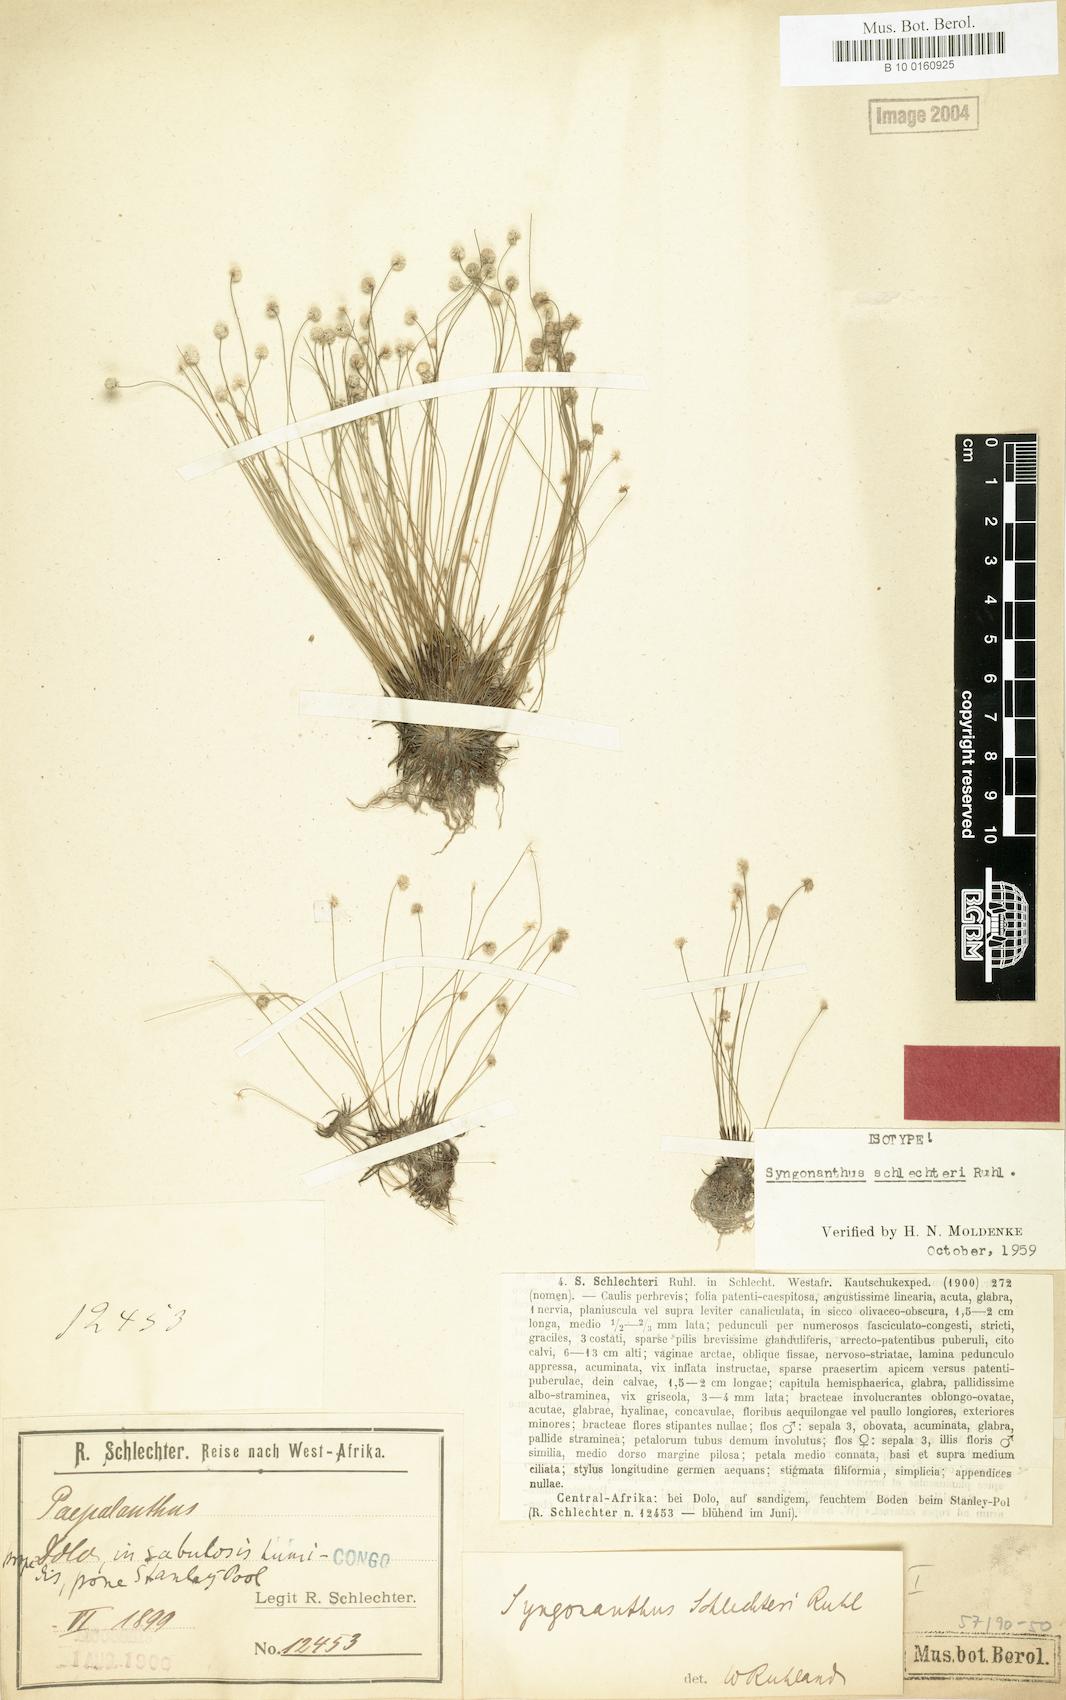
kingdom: Plantae
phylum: Tracheophyta
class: Liliopsida
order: Poales
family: Eriocaulaceae
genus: Syngonanthus
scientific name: Syngonanthus schlechteri
